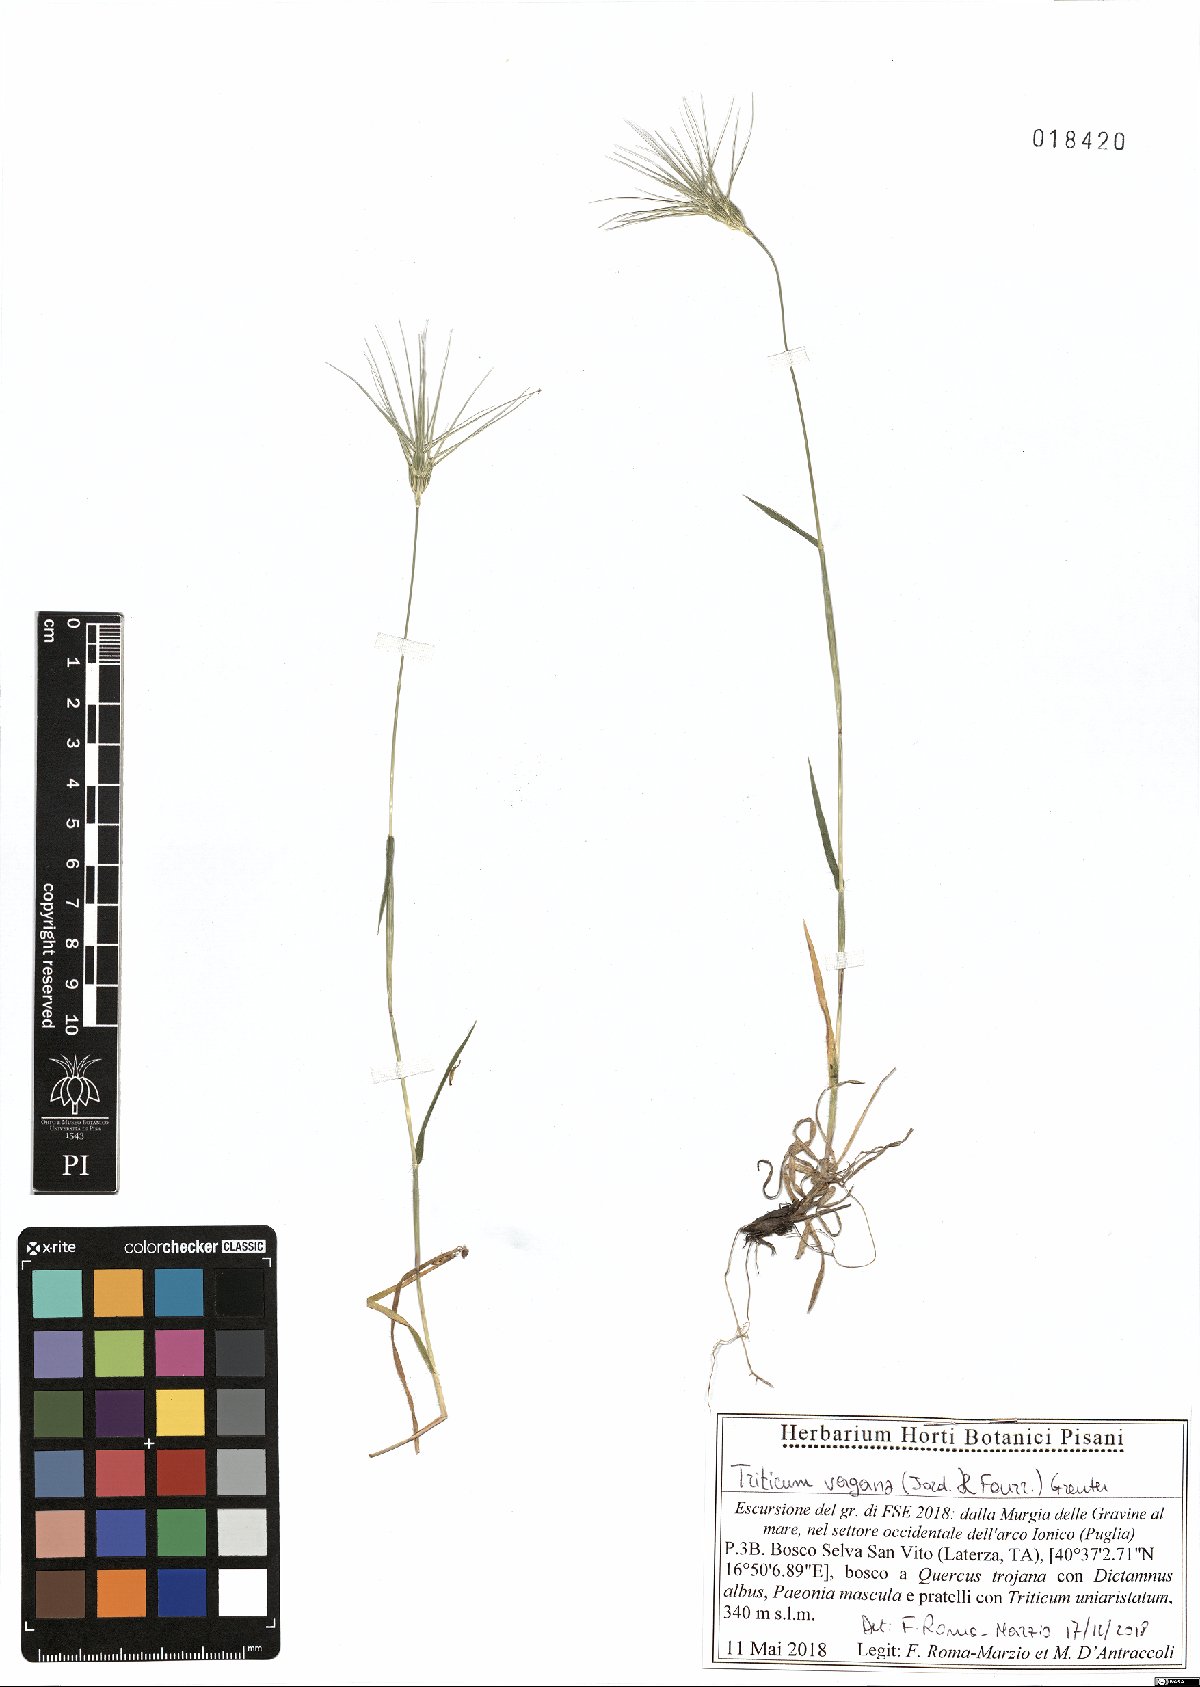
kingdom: Plantae
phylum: Tracheophyta
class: Liliopsida
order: Poales
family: Poaceae
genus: Aegilops
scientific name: Aegilops geniculata
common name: Ovate goat grass
